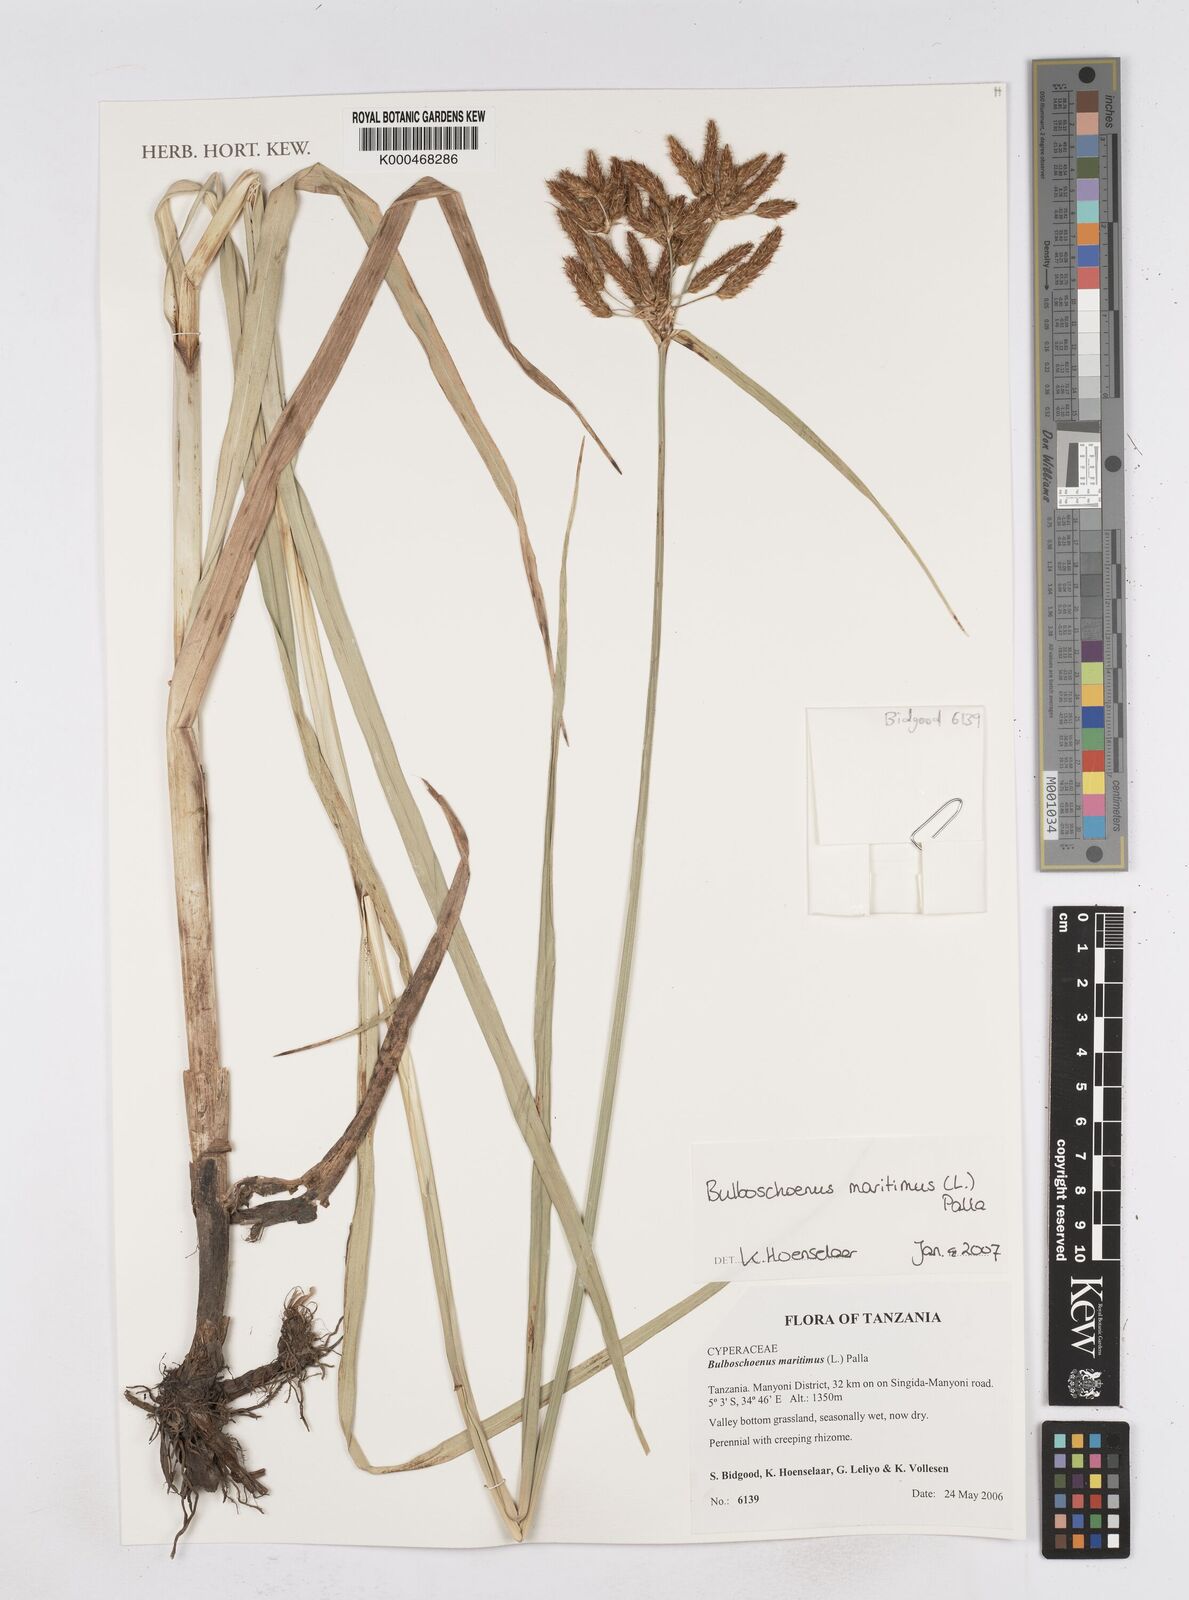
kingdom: Plantae
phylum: Tracheophyta
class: Liliopsida
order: Poales
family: Cyperaceae
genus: Bolboschoenus
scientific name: Bolboschoenus maritimus
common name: Sea club-rush
